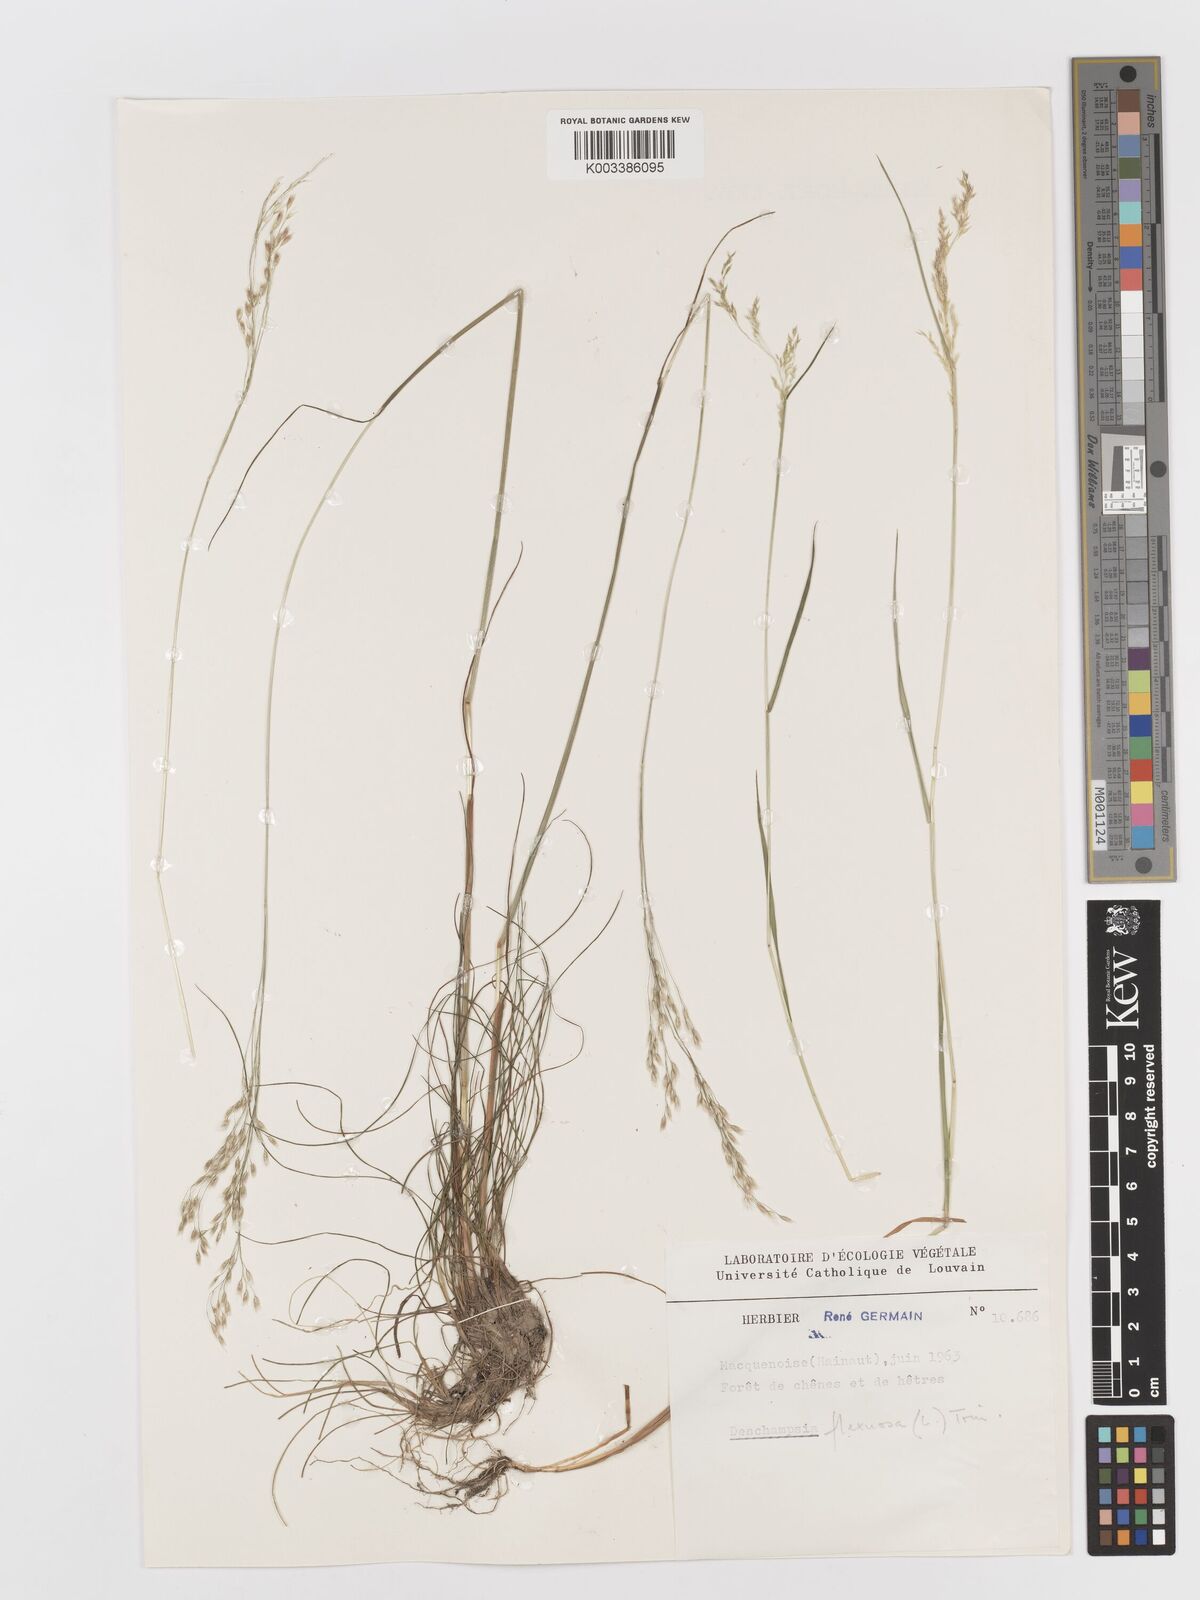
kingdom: Plantae
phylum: Tracheophyta
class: Liliopsida
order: Poales
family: Poaceae
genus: Avenella
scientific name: Avenella flexuosa
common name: Wavy hairgrass
